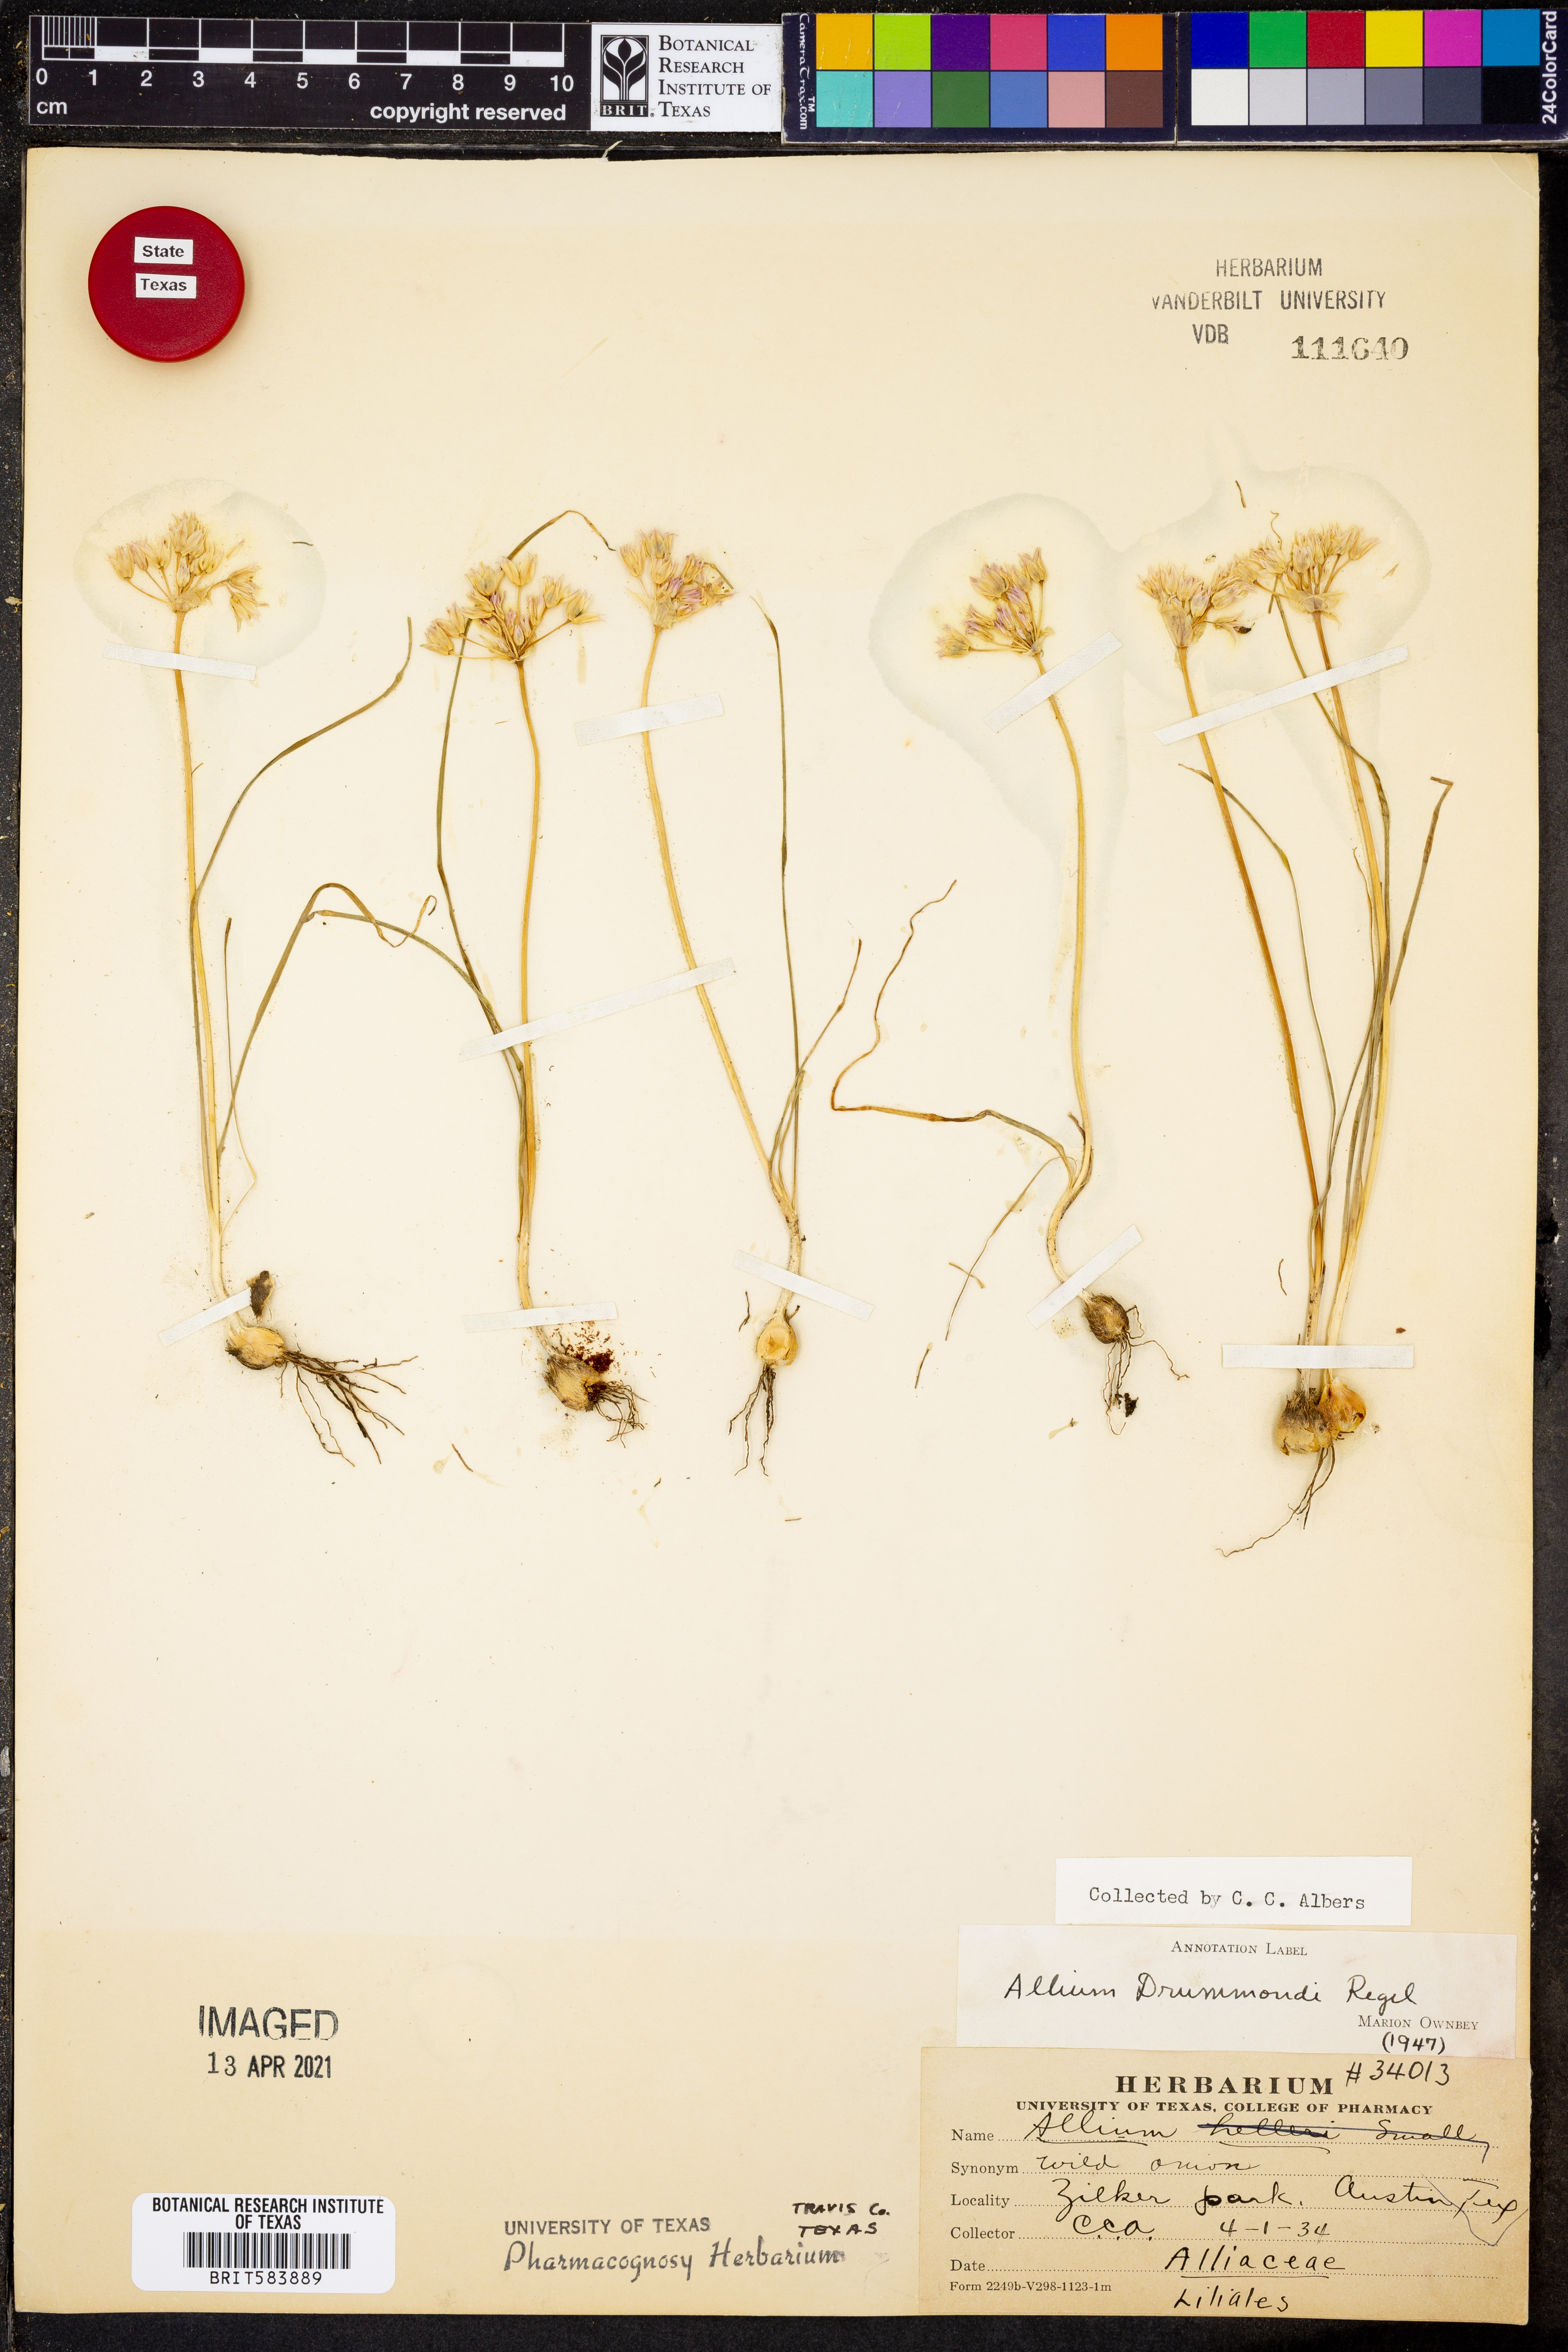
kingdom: Plantae
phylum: Tracheophyta
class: Liliopsida
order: Asparagales
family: Amaryllidaceae
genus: Allium
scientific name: Allium drummondii
